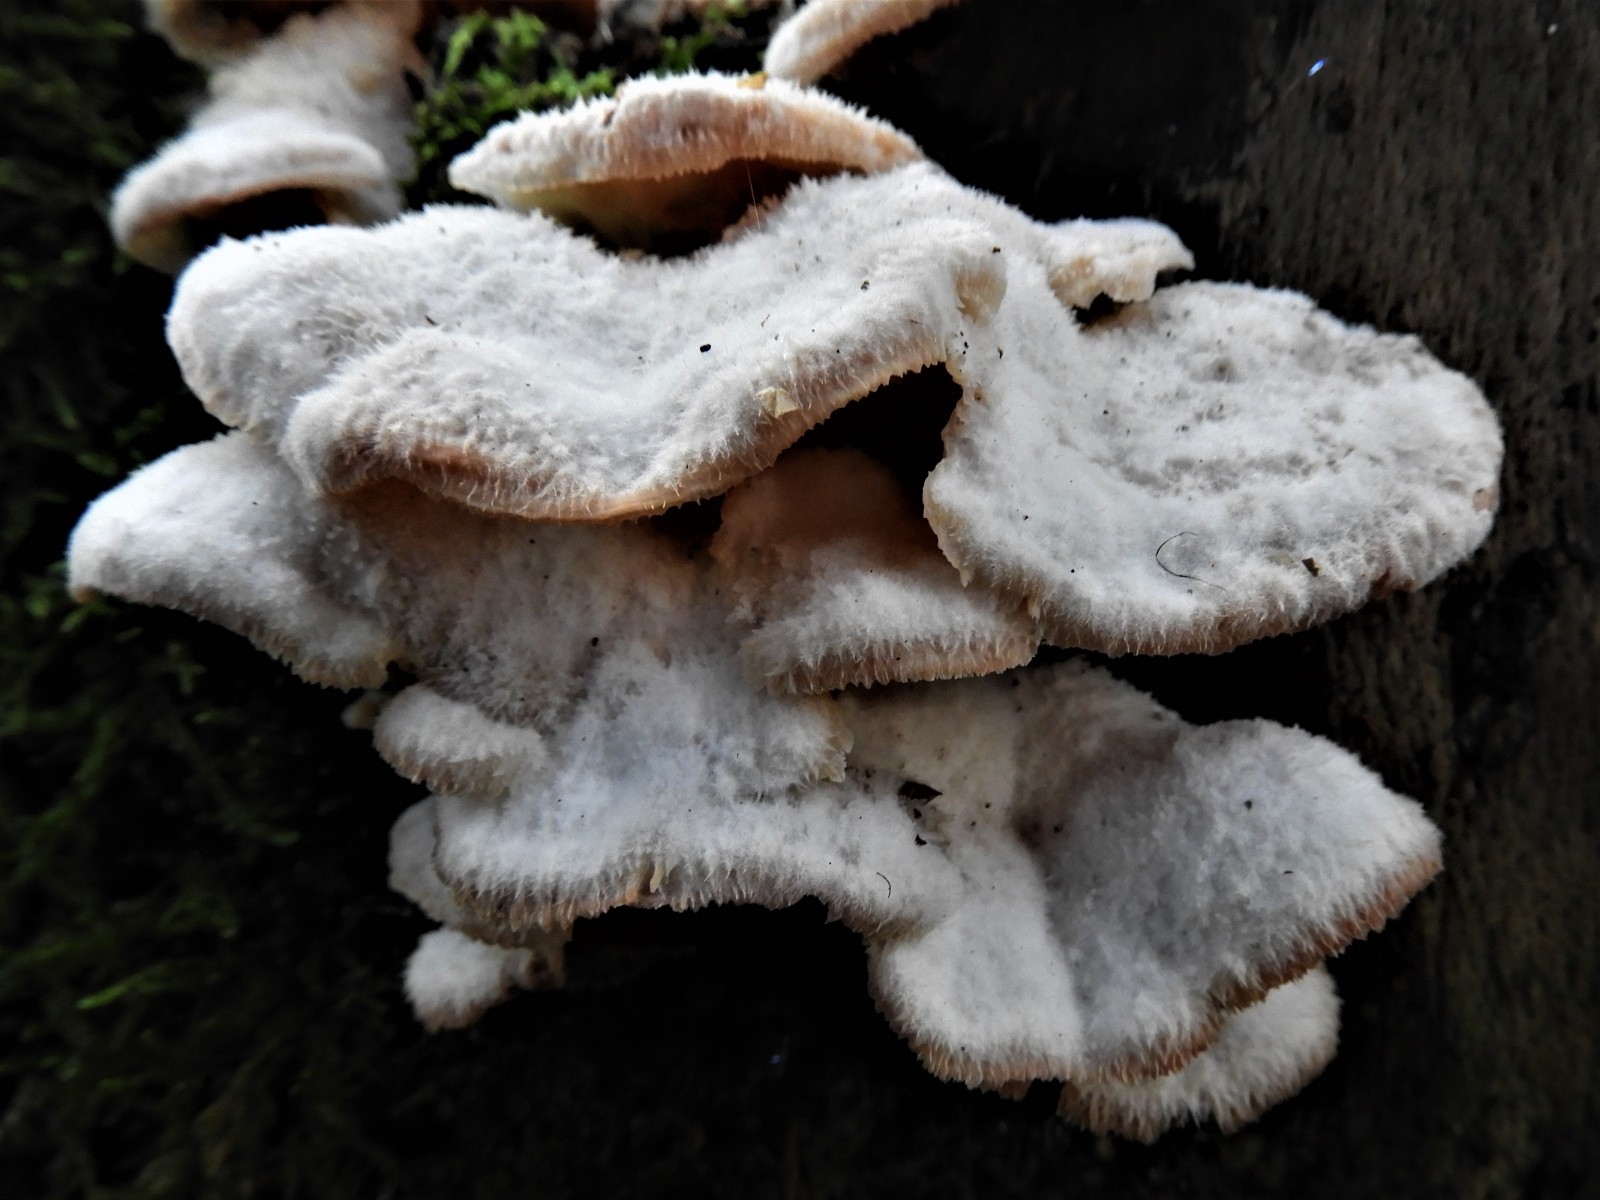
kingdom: Fungi
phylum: Basidiomycota
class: Agaricomycetes
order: Polyporales
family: Meruliaceae
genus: Phlebia
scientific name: Phlebia tremellosa
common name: bævrende åresvamp
